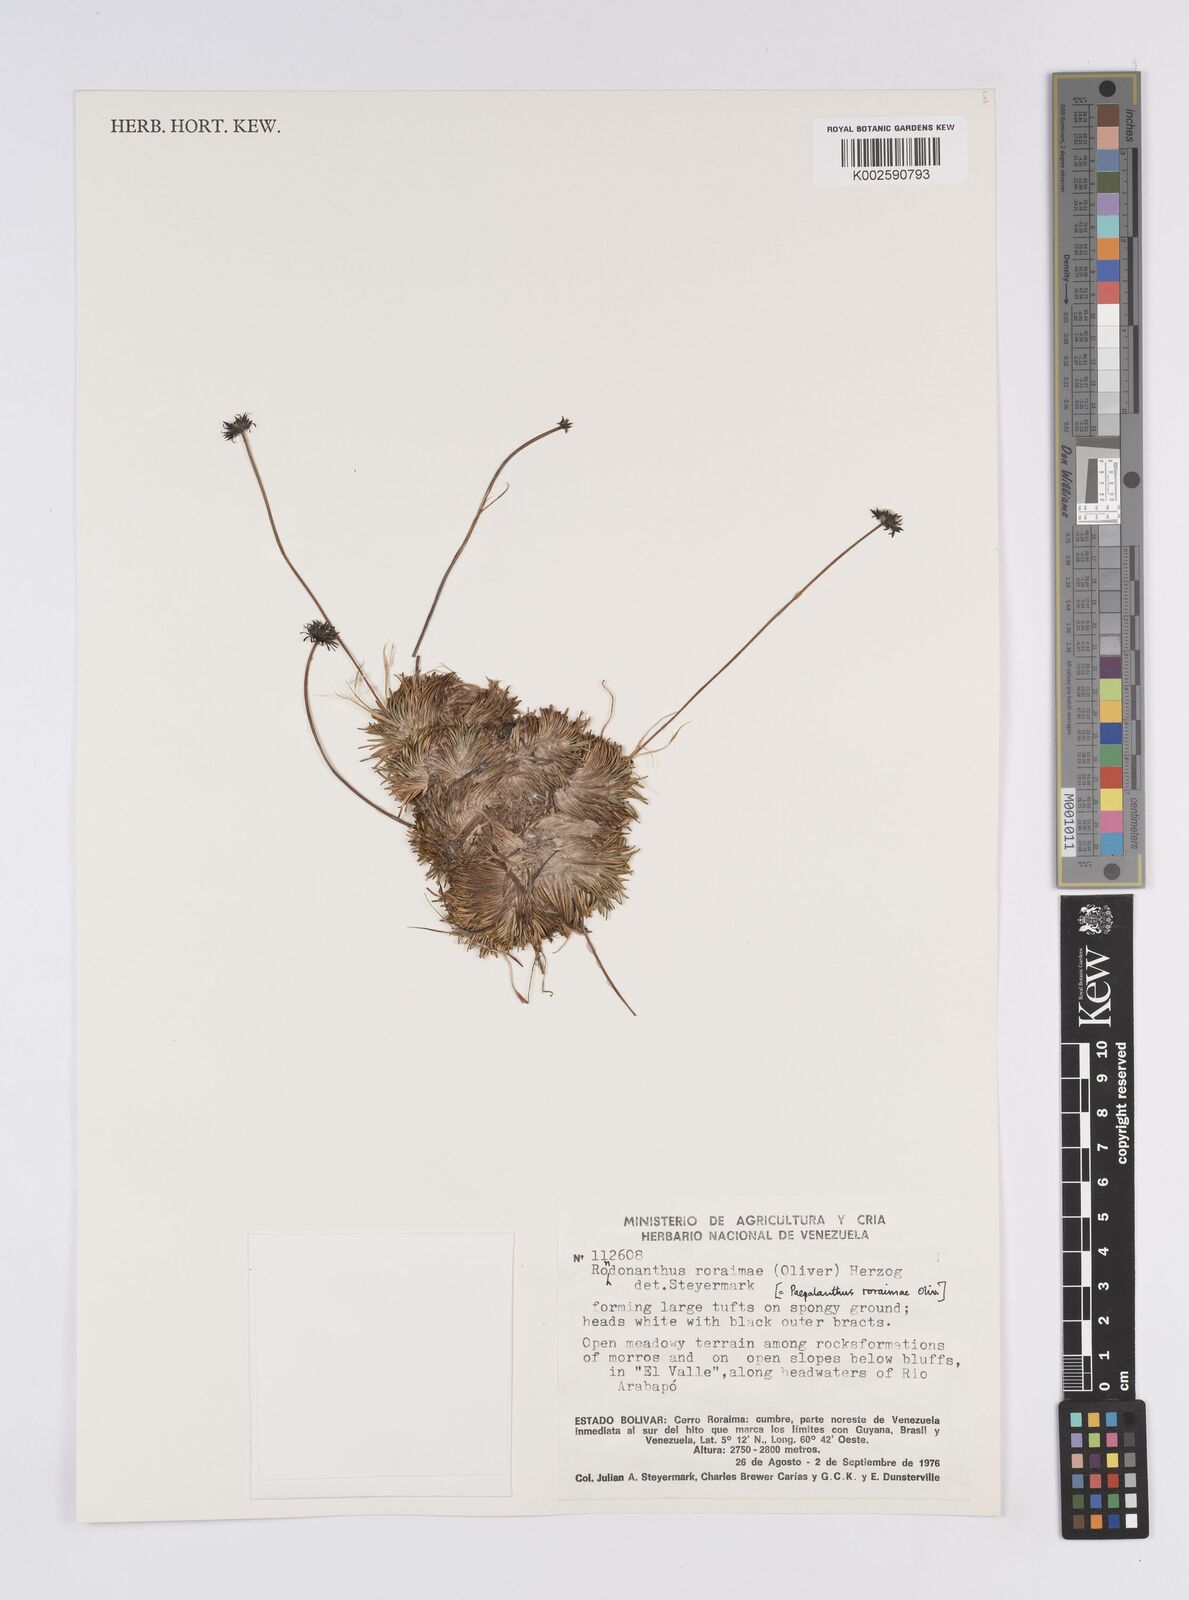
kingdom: Plantae
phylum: Tracheophyta
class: Liliopsida
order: Poales
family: Eriocaulaceae
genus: Rondonanthus
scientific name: Rondonanthus roraimae
